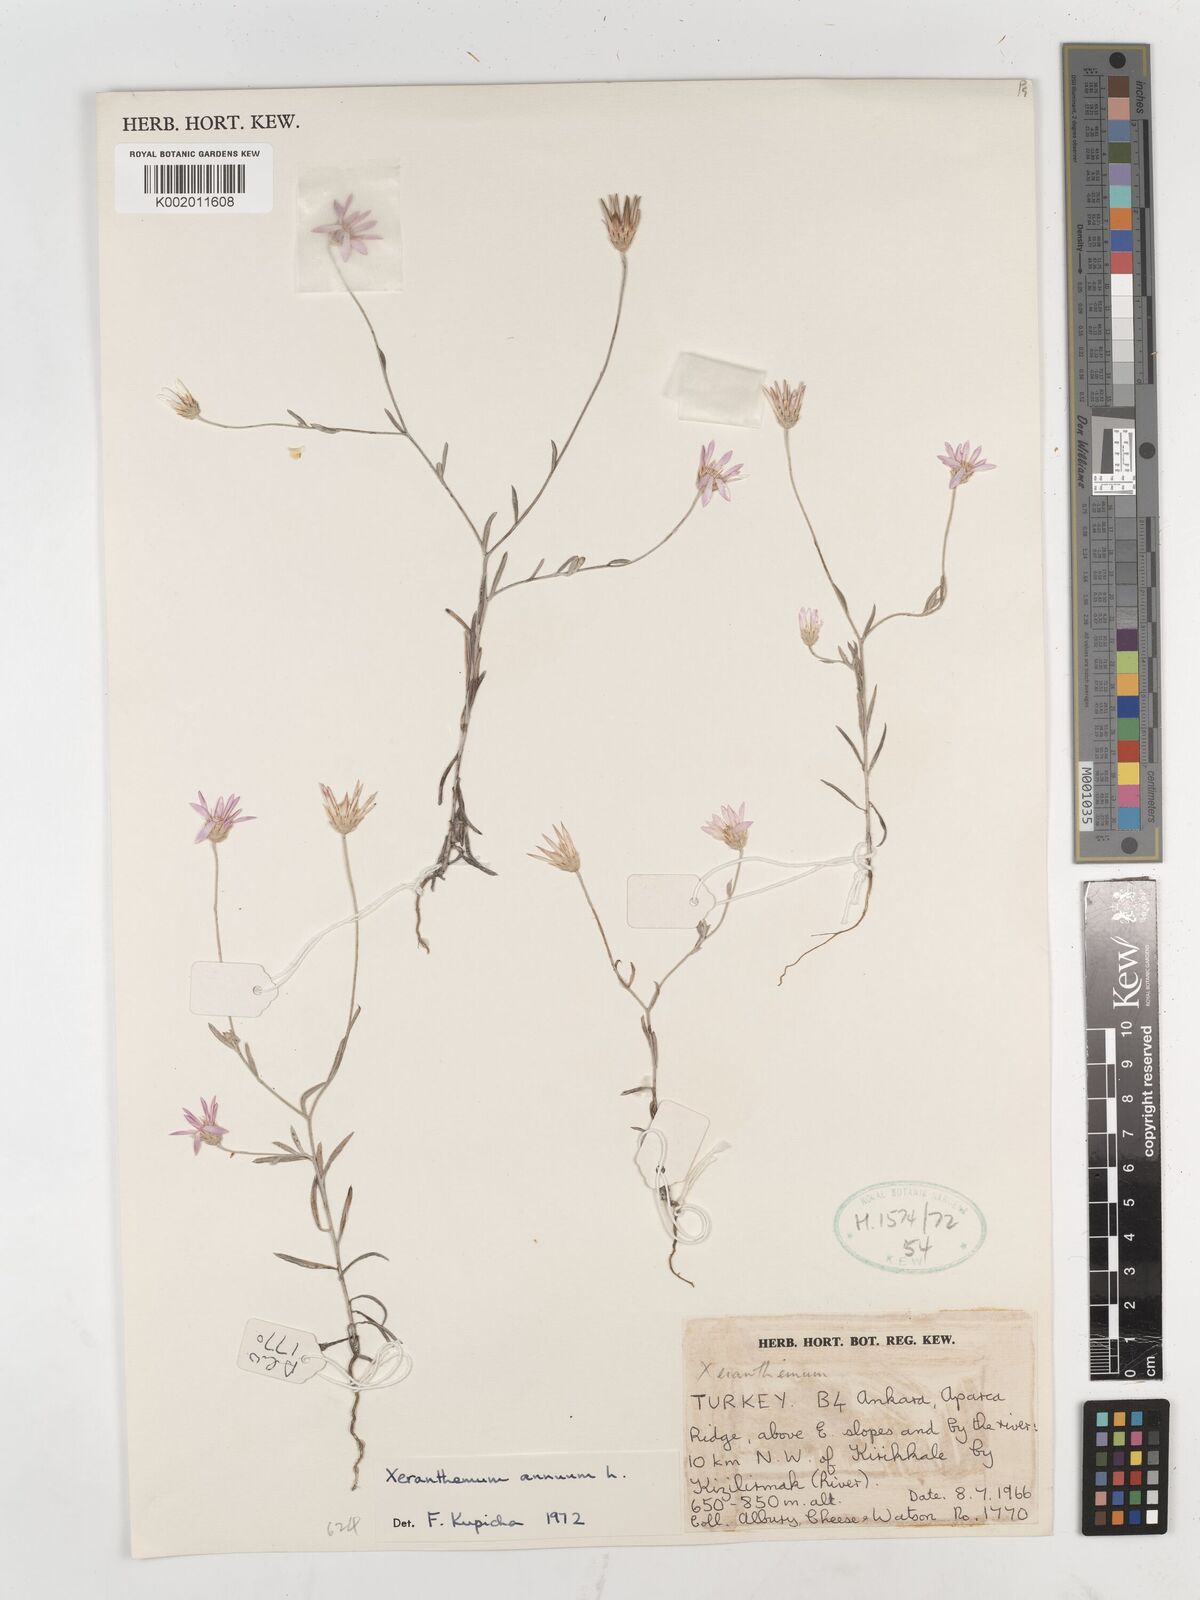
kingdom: Plantae
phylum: Tracheophyta
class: Magnoliopsida
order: Asterales
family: Asteraceae
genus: Xeranthemum
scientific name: Xeranthemum annuum
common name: Immortelle
